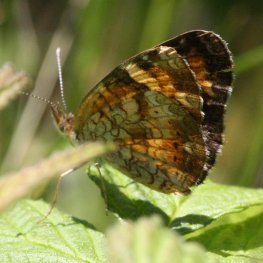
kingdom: Animalia
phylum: Arthropoda
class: Insecta
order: Lepidoptera
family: Nymphalidae
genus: Phyciodes
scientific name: Phyciodes tharos
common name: Northern Crescent
